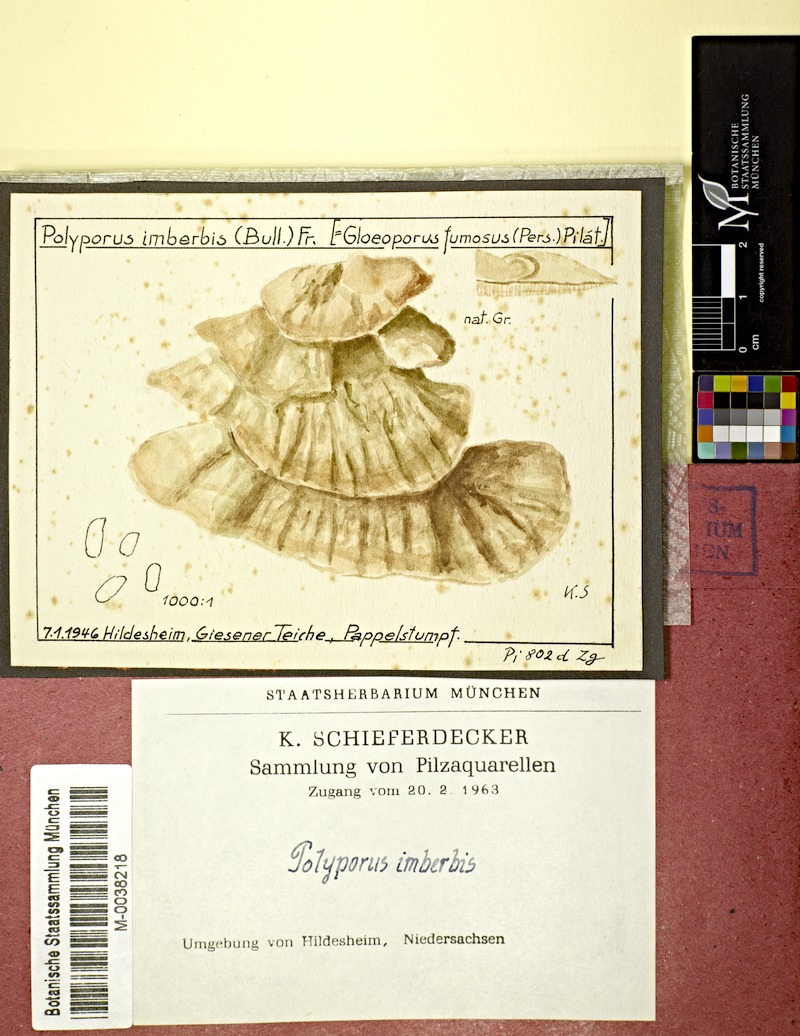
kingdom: Plantae
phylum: Tracheophyta
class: Magnoliopsida
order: Malpighiales
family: Salicaceae
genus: Populus
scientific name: Populus
